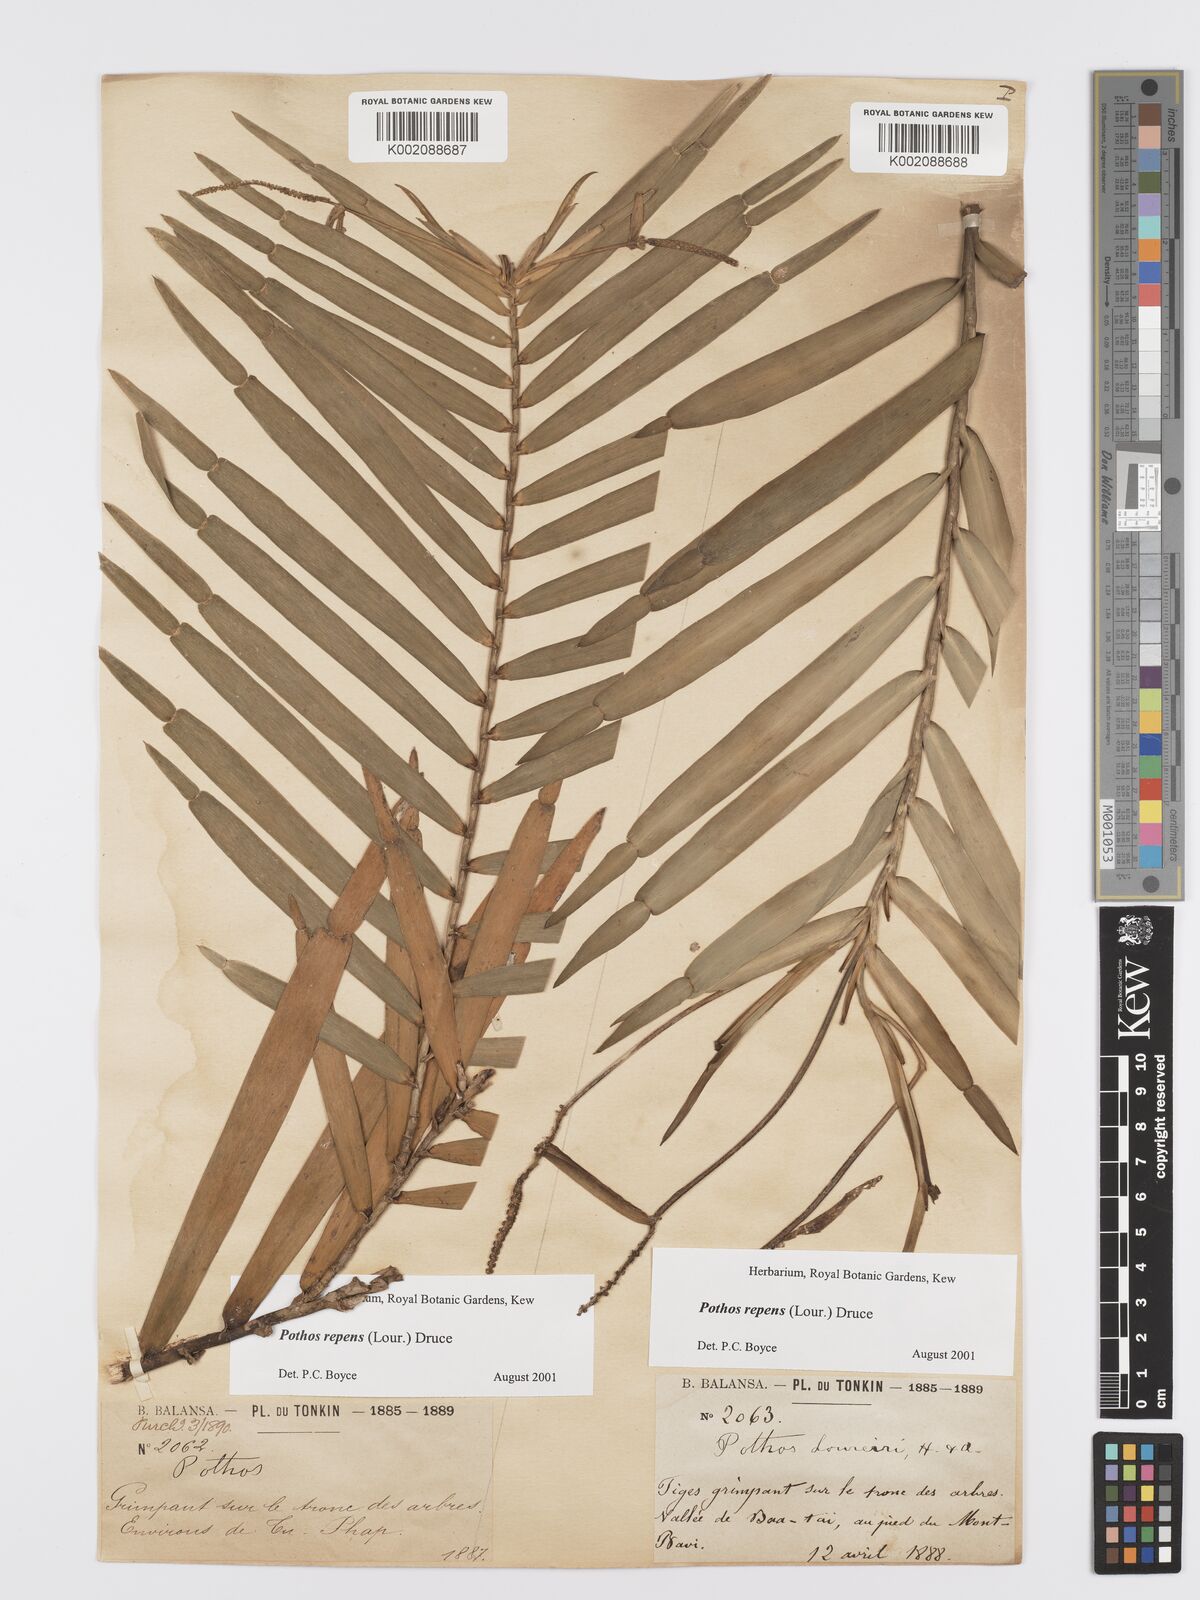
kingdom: Plantae
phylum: Tracheophyta
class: Liliopsida
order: Alismatales
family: Araceae
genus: Pothos
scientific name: Pothos repens
